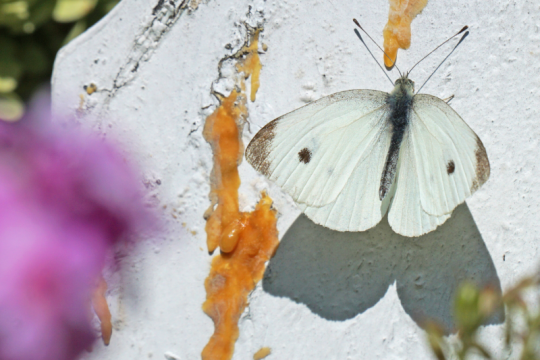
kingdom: Animalia
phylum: Arthropoda
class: Insecta
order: Lepidoptera
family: Pieridae
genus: Pieris
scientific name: Pieris rapae
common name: Cabbage White
